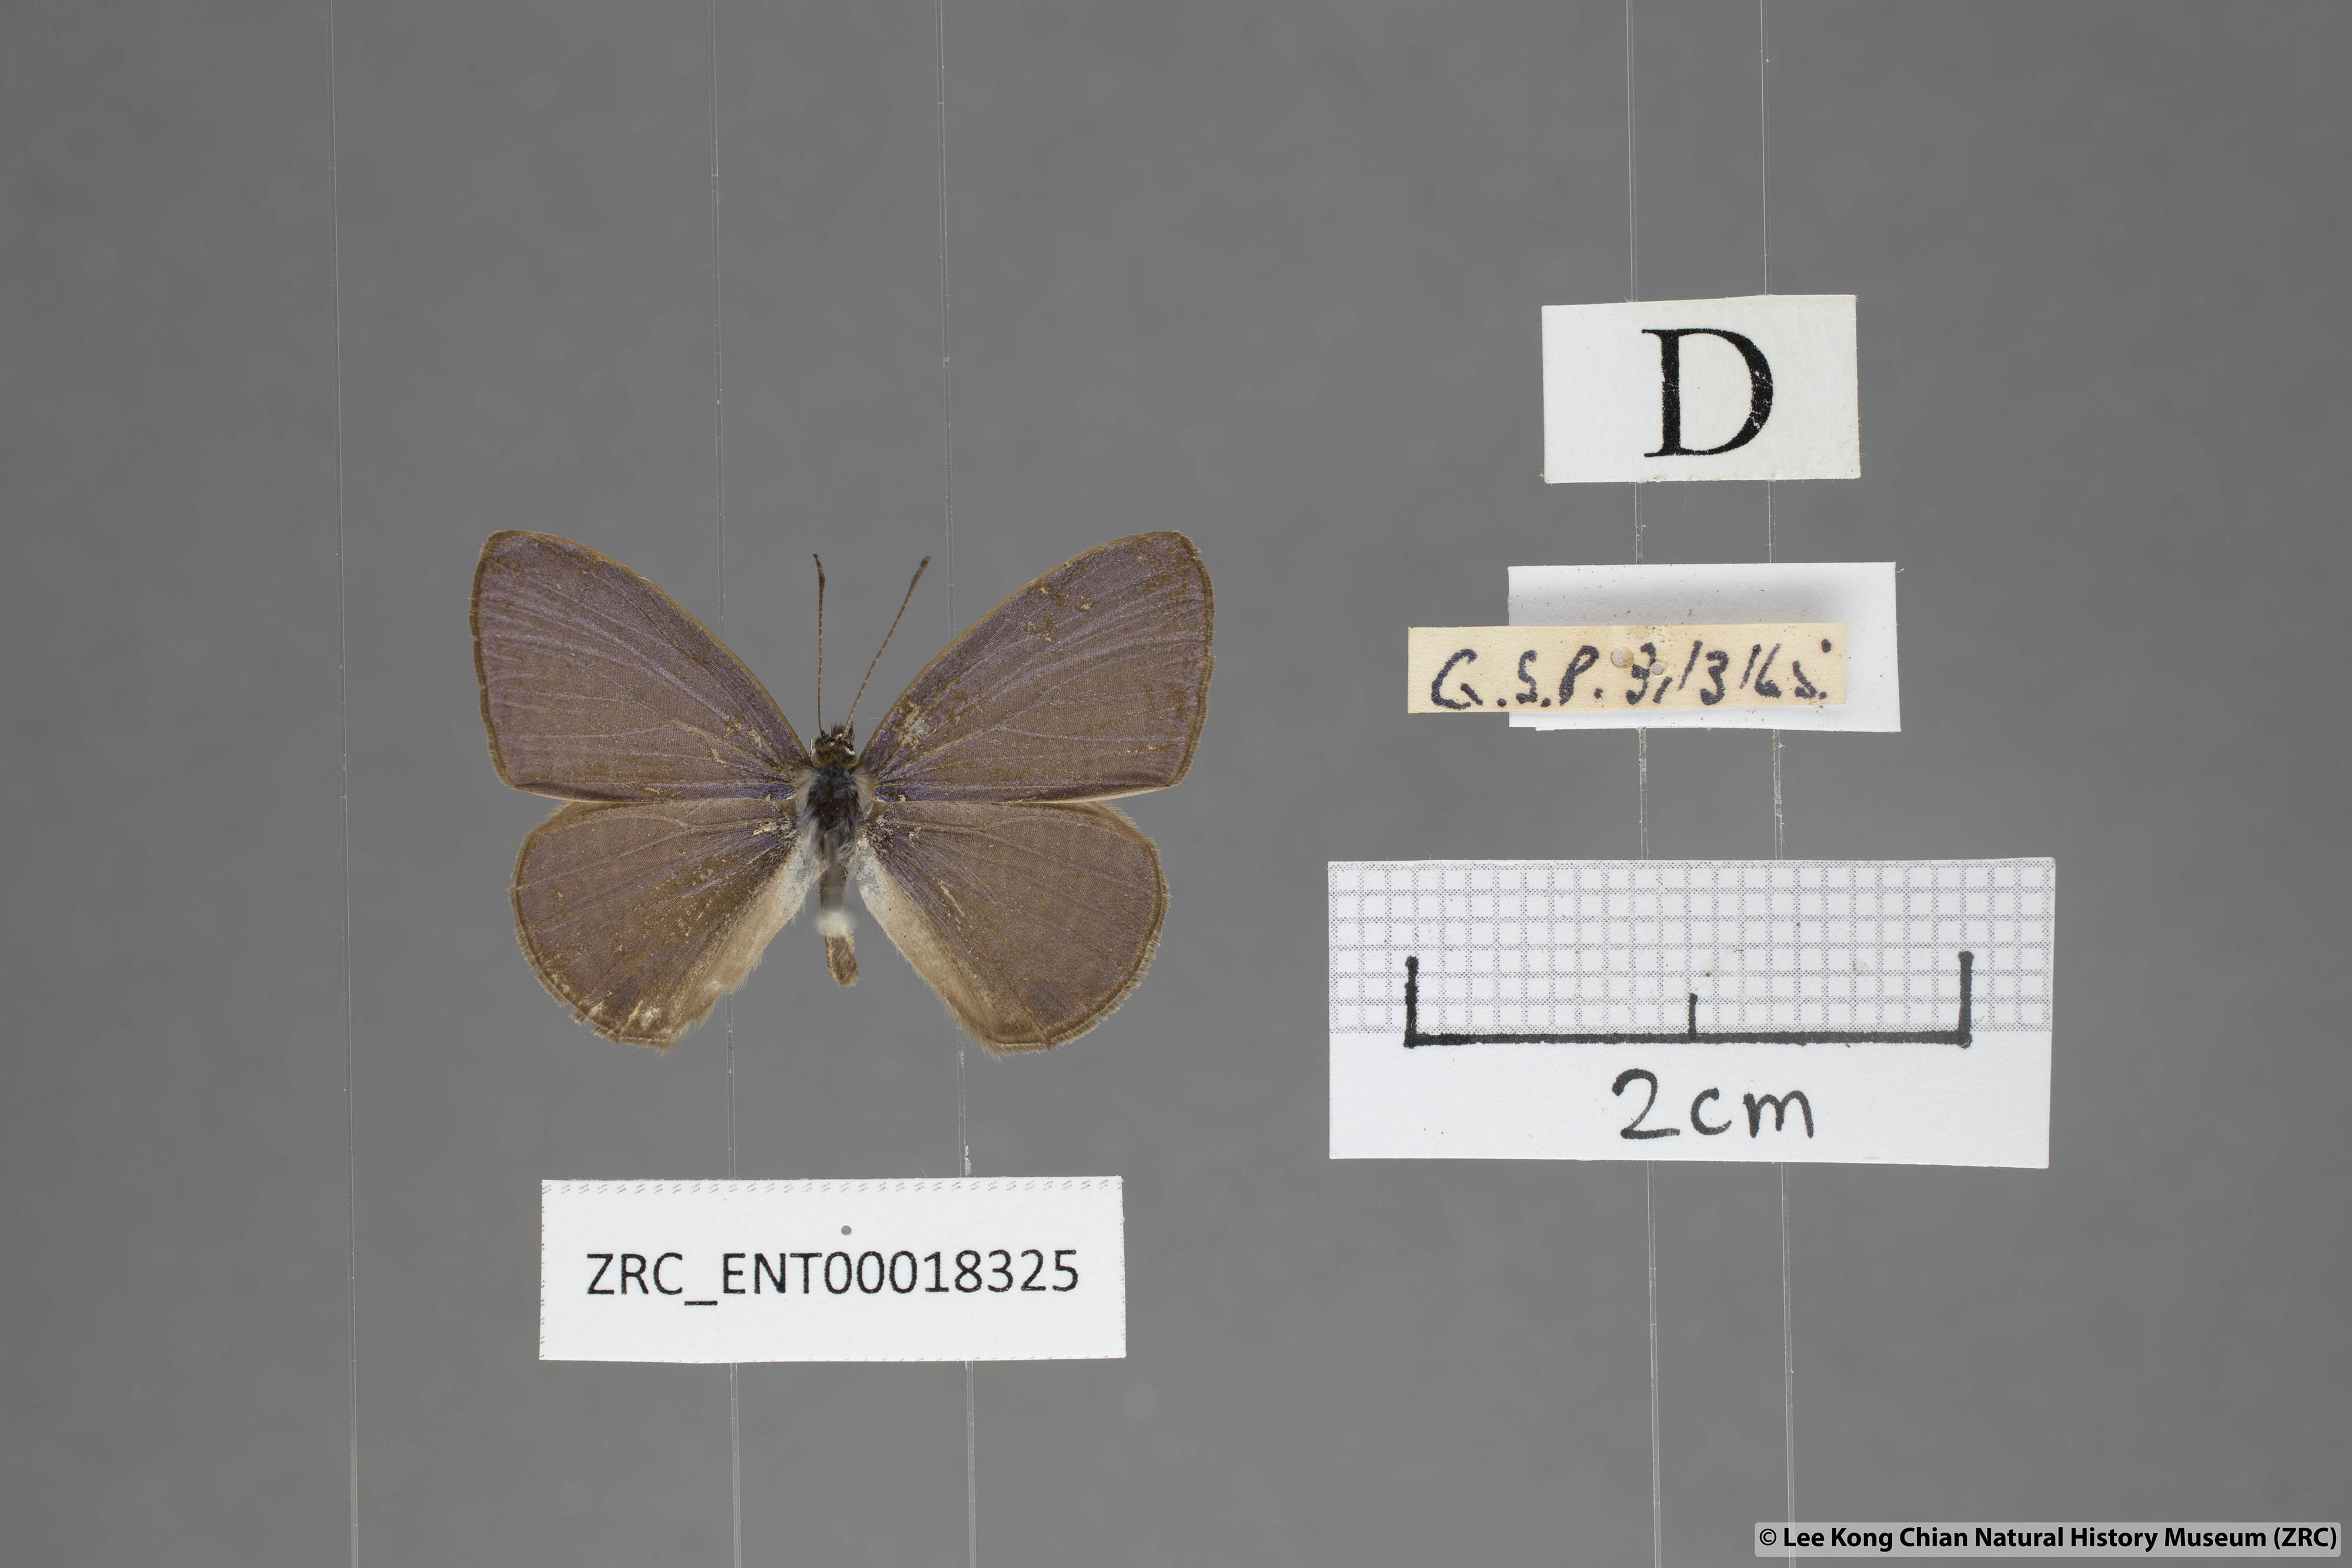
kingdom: Animalia
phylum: Arthropoda
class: Insecta
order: Lepidoptera
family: Lycaenidae
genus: Nacaduba
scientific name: Nacaduba beroe
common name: Opaque sixline blue
